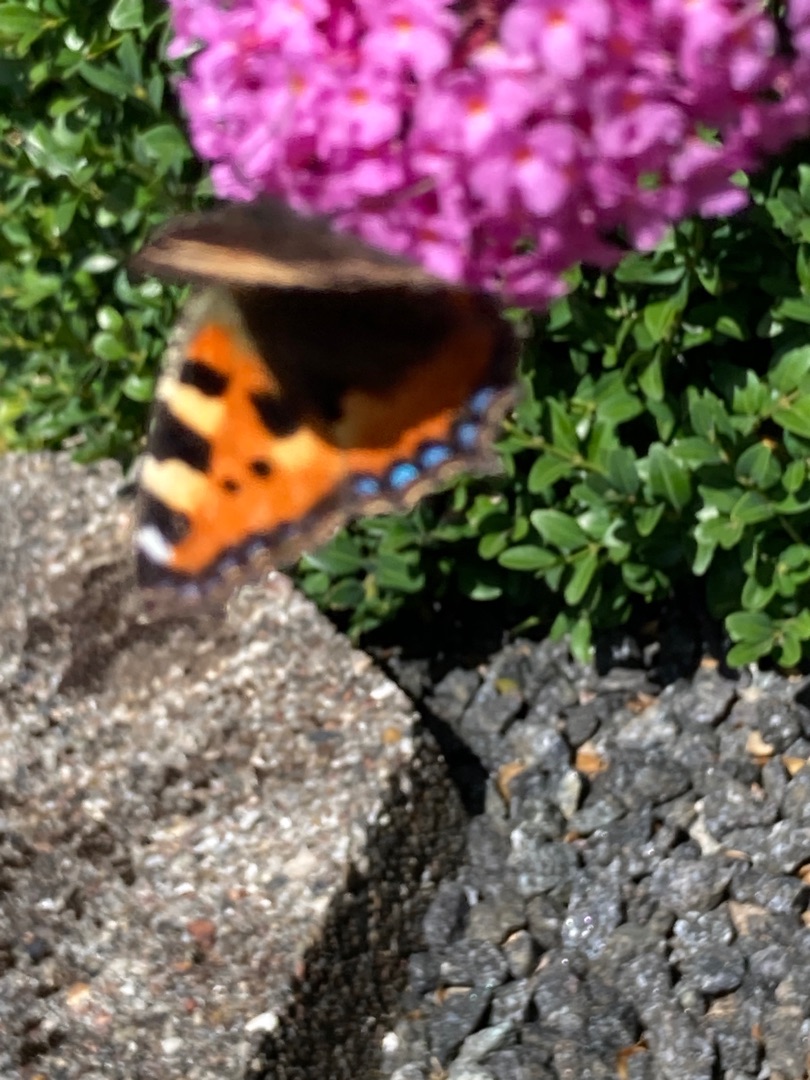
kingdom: Animalia
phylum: Arthropoda
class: Insecta
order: Lepidoptera
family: Nymphalidae
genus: Aglais
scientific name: Aglais urticae
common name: Nældens takvinge
